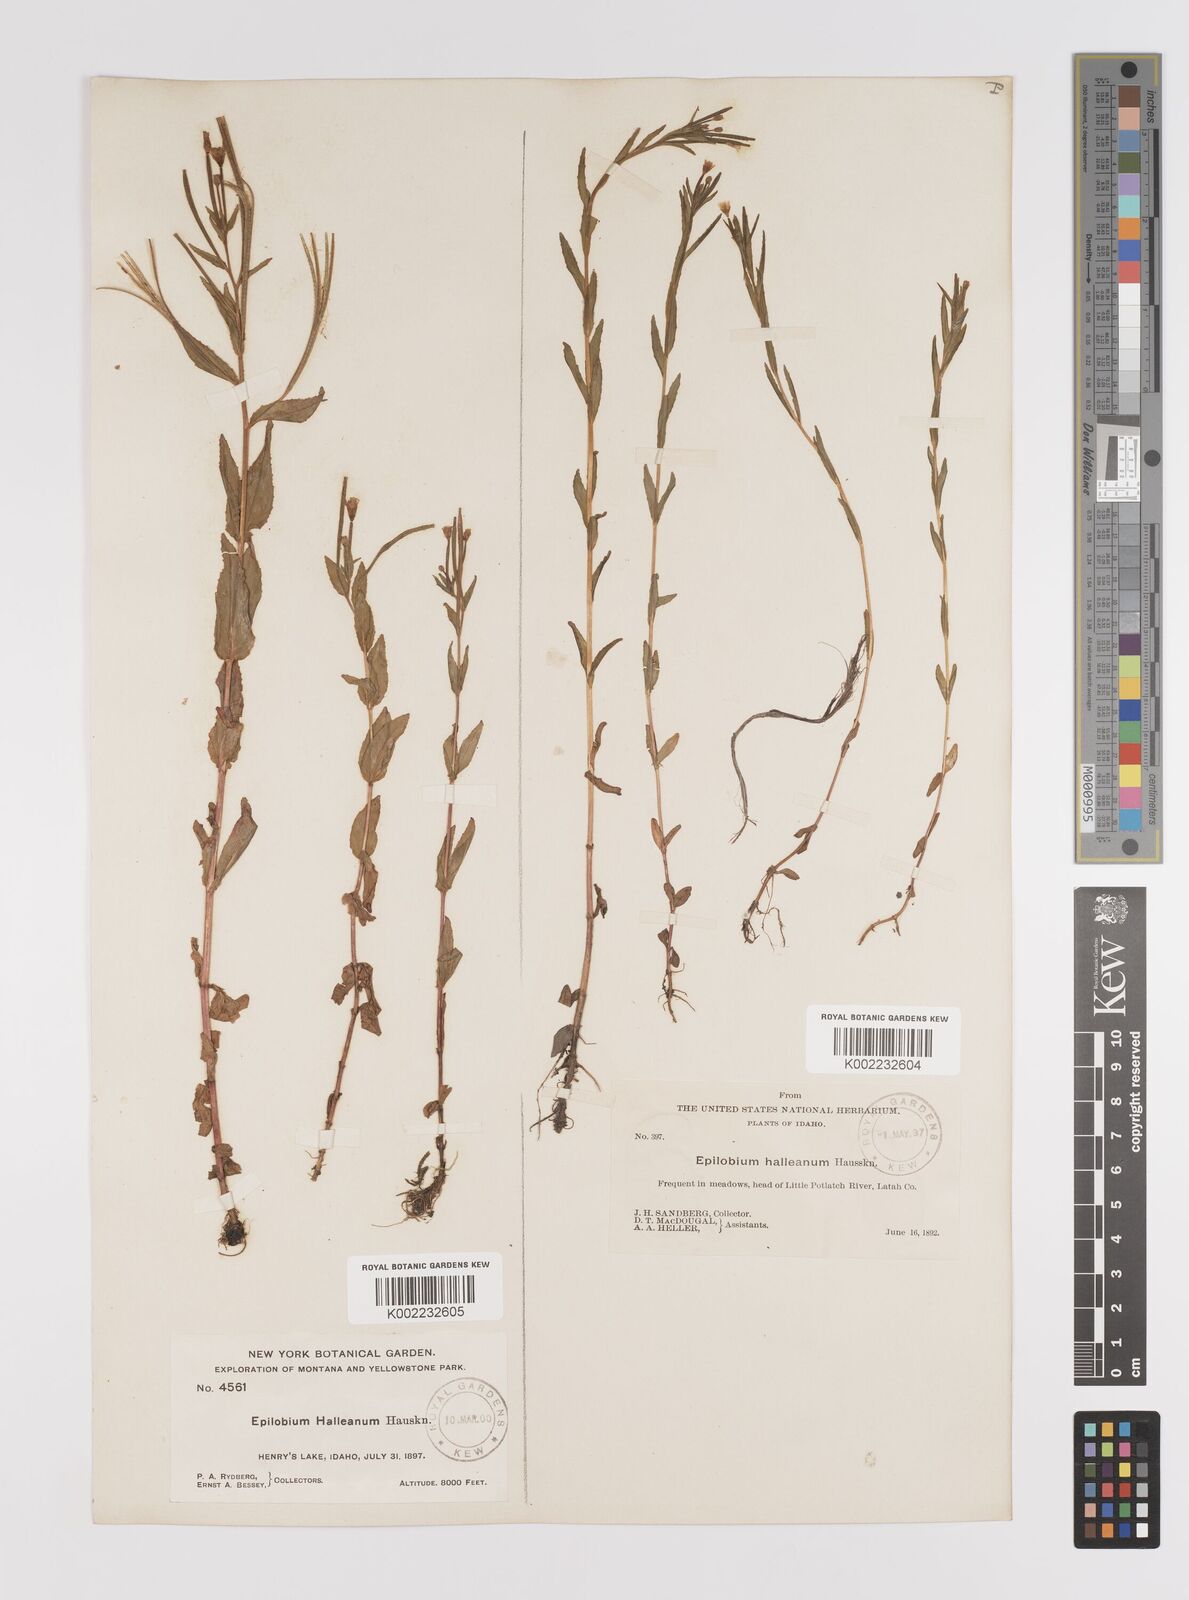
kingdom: Plantae
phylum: Tracheophyta
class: Magnoliopsida
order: Myrtales
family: Onagraceae
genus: Epilobium
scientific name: Epilobium hallianum
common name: Hall's willowherb
